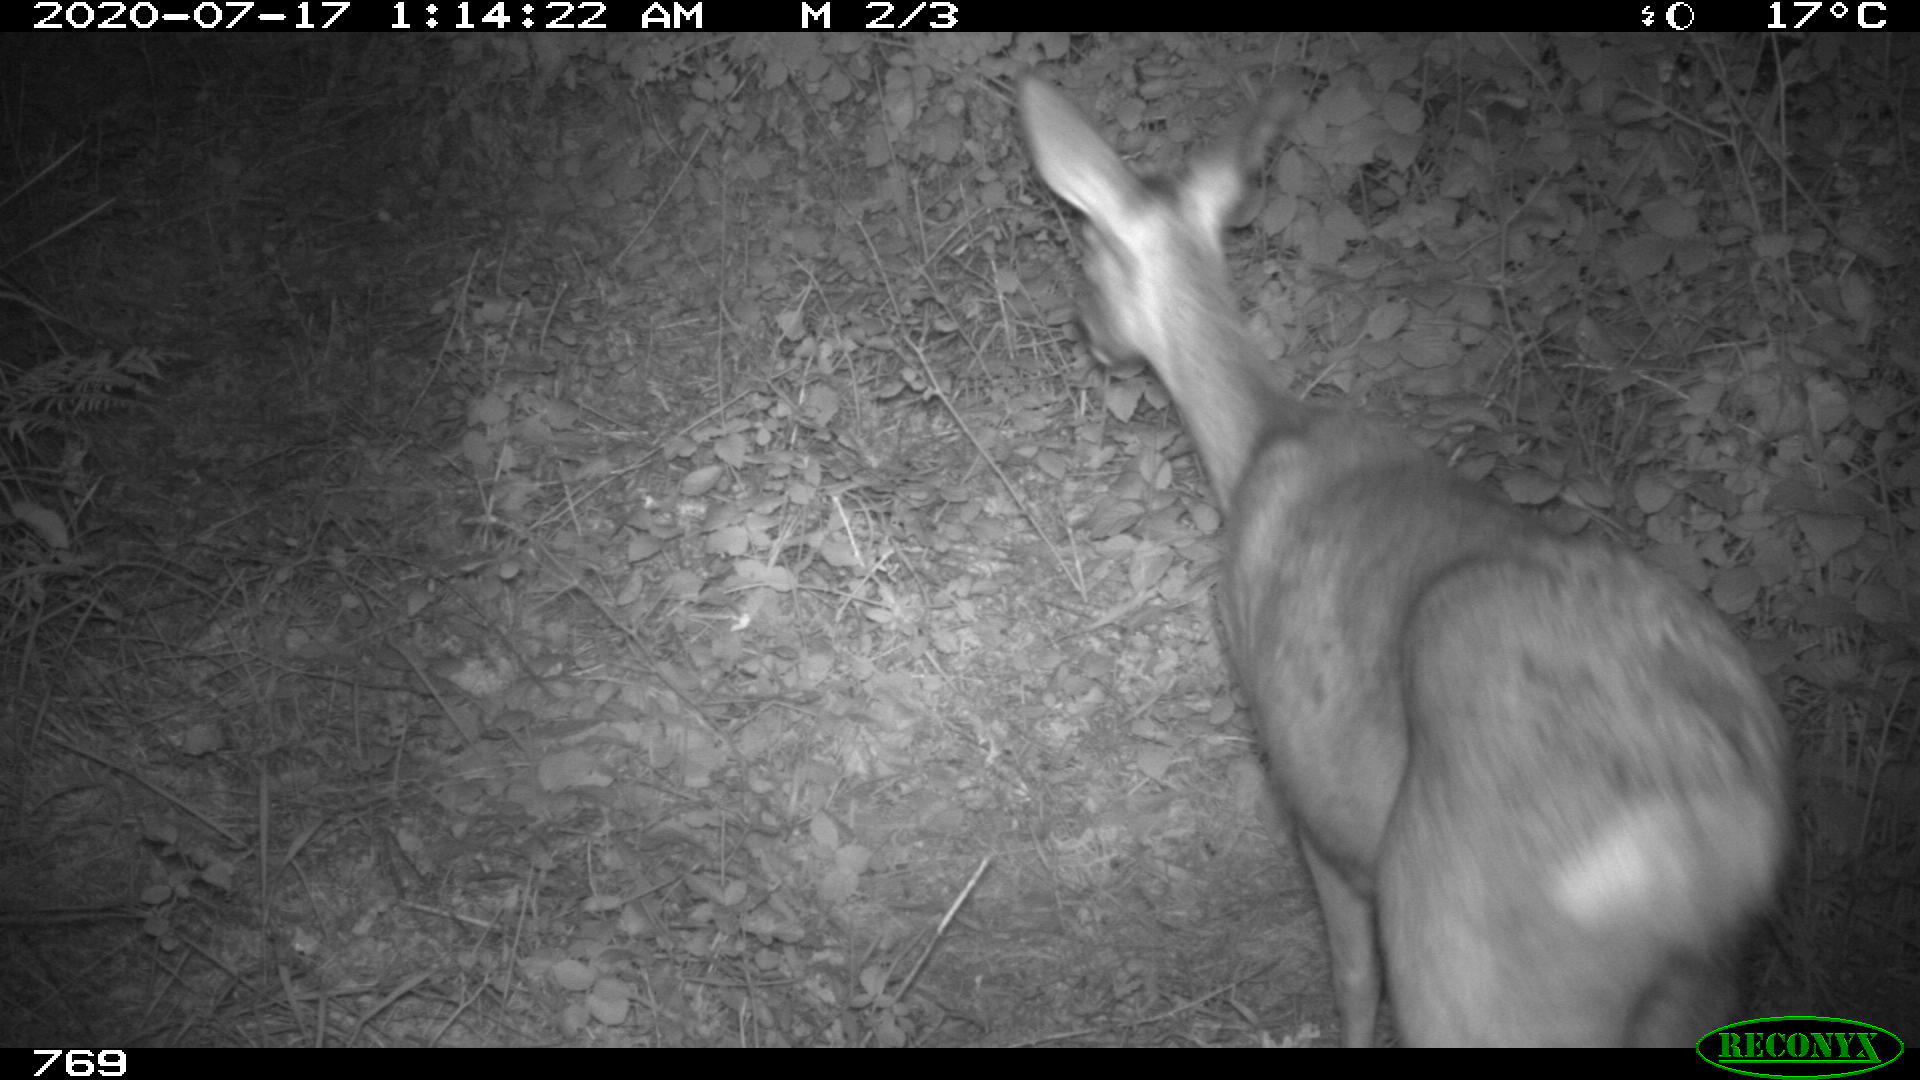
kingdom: Animalia
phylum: Chordata
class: Mammalia
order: Artiodactyla
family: Cervidae
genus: Capreolus
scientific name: Capreolus capreolus
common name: Western roe deer
